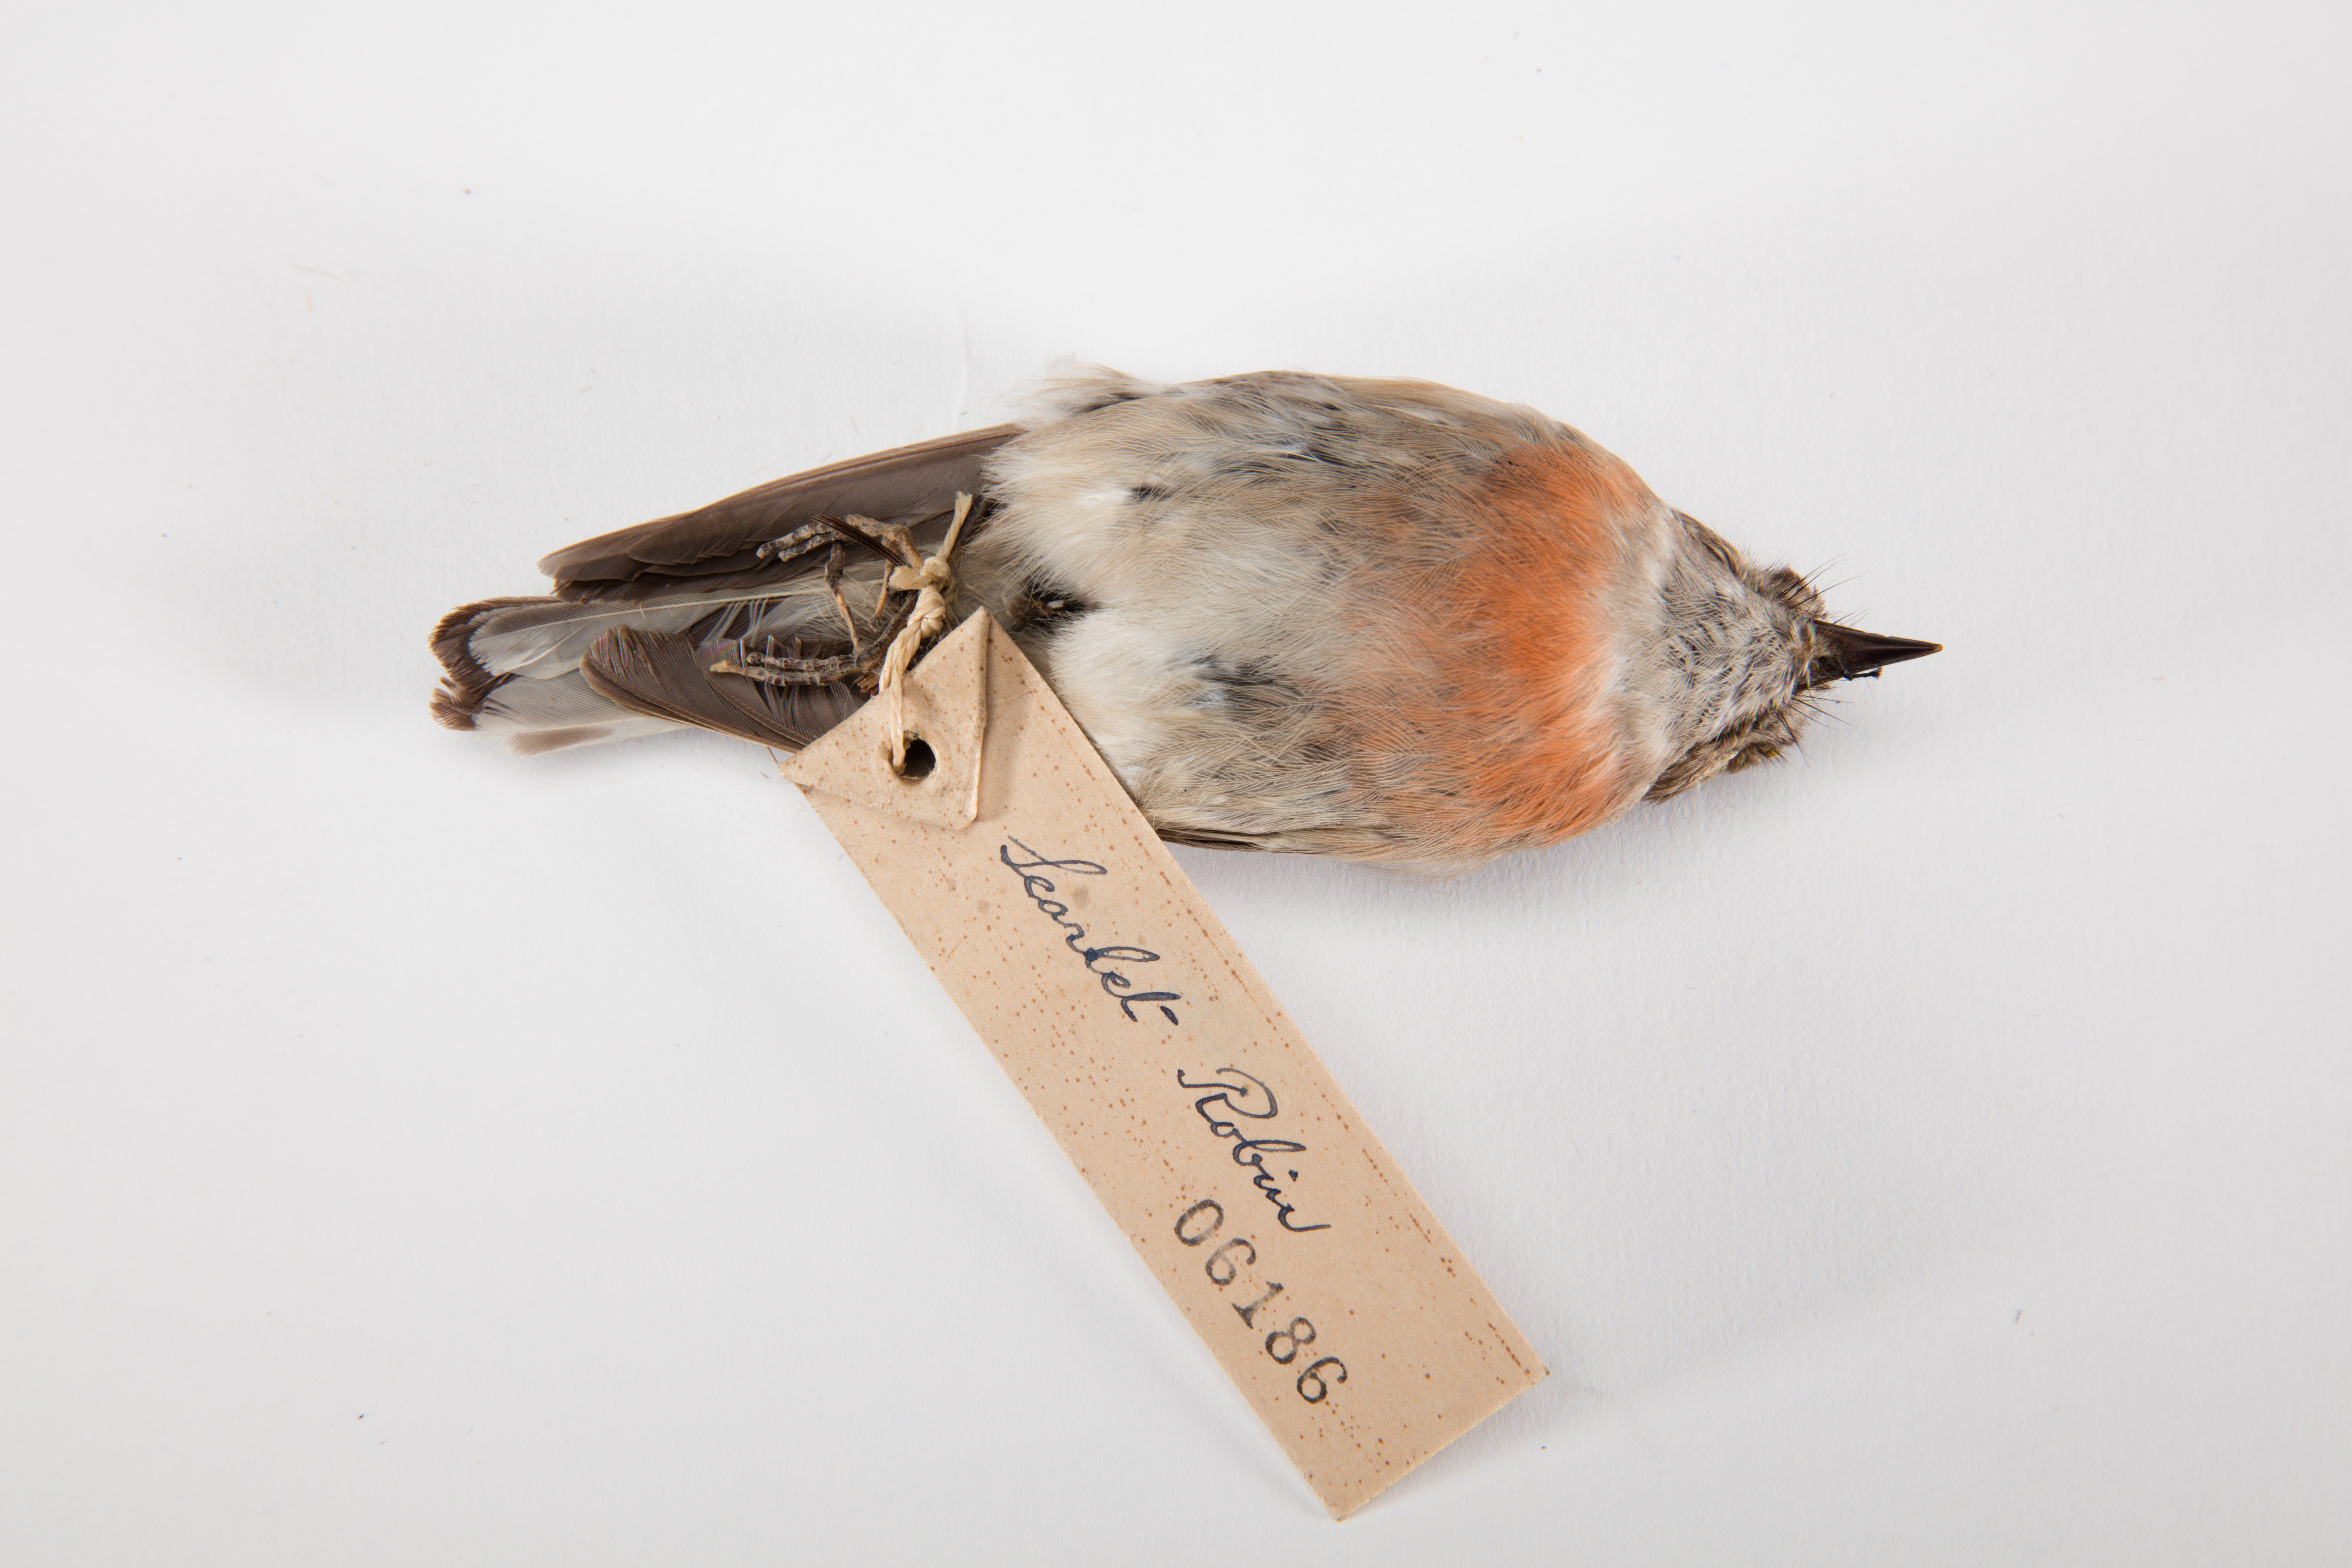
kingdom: Animalia
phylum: Chordata
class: Aves
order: Passeriformes
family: Petroicidae
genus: Petroica
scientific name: Petroica multicolor
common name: Pacific robin
